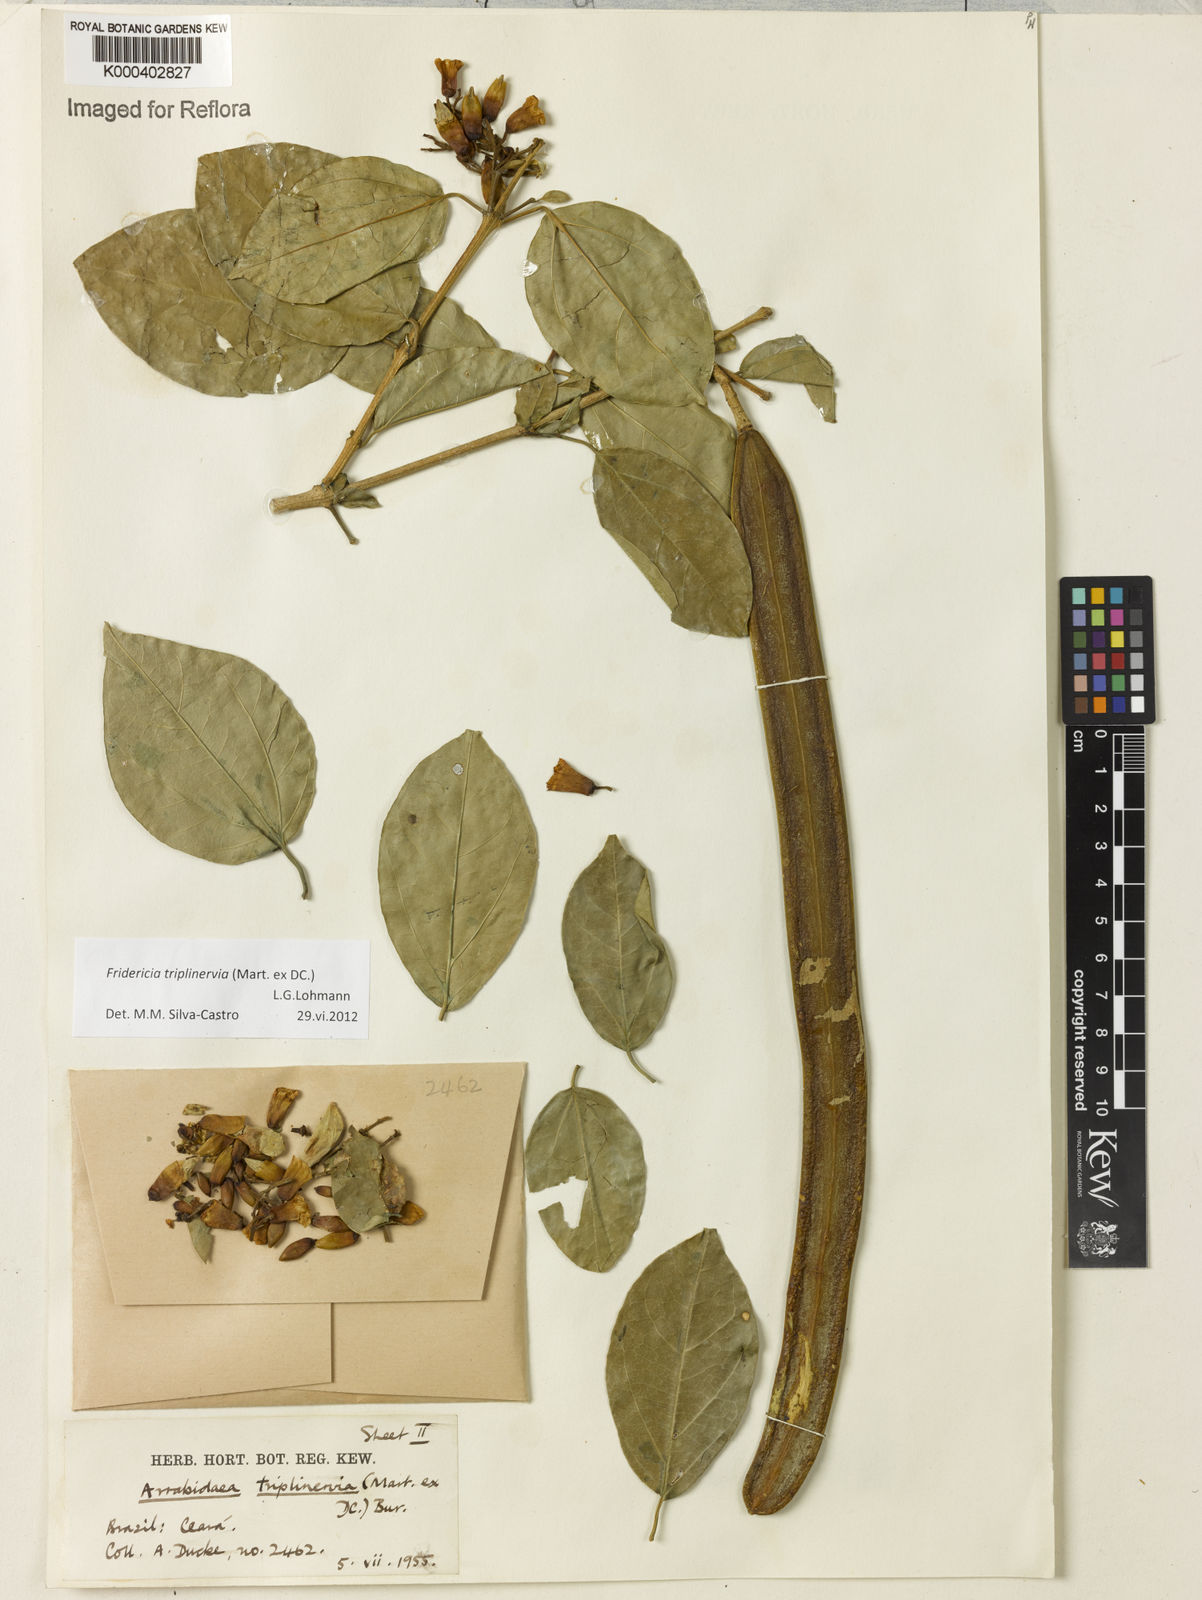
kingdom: Plantae
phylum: Tracheophyta
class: Magnoliopsida
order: Lamiales
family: Bignoniaceae
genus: Fridericia
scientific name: Fridericia triplinervia
